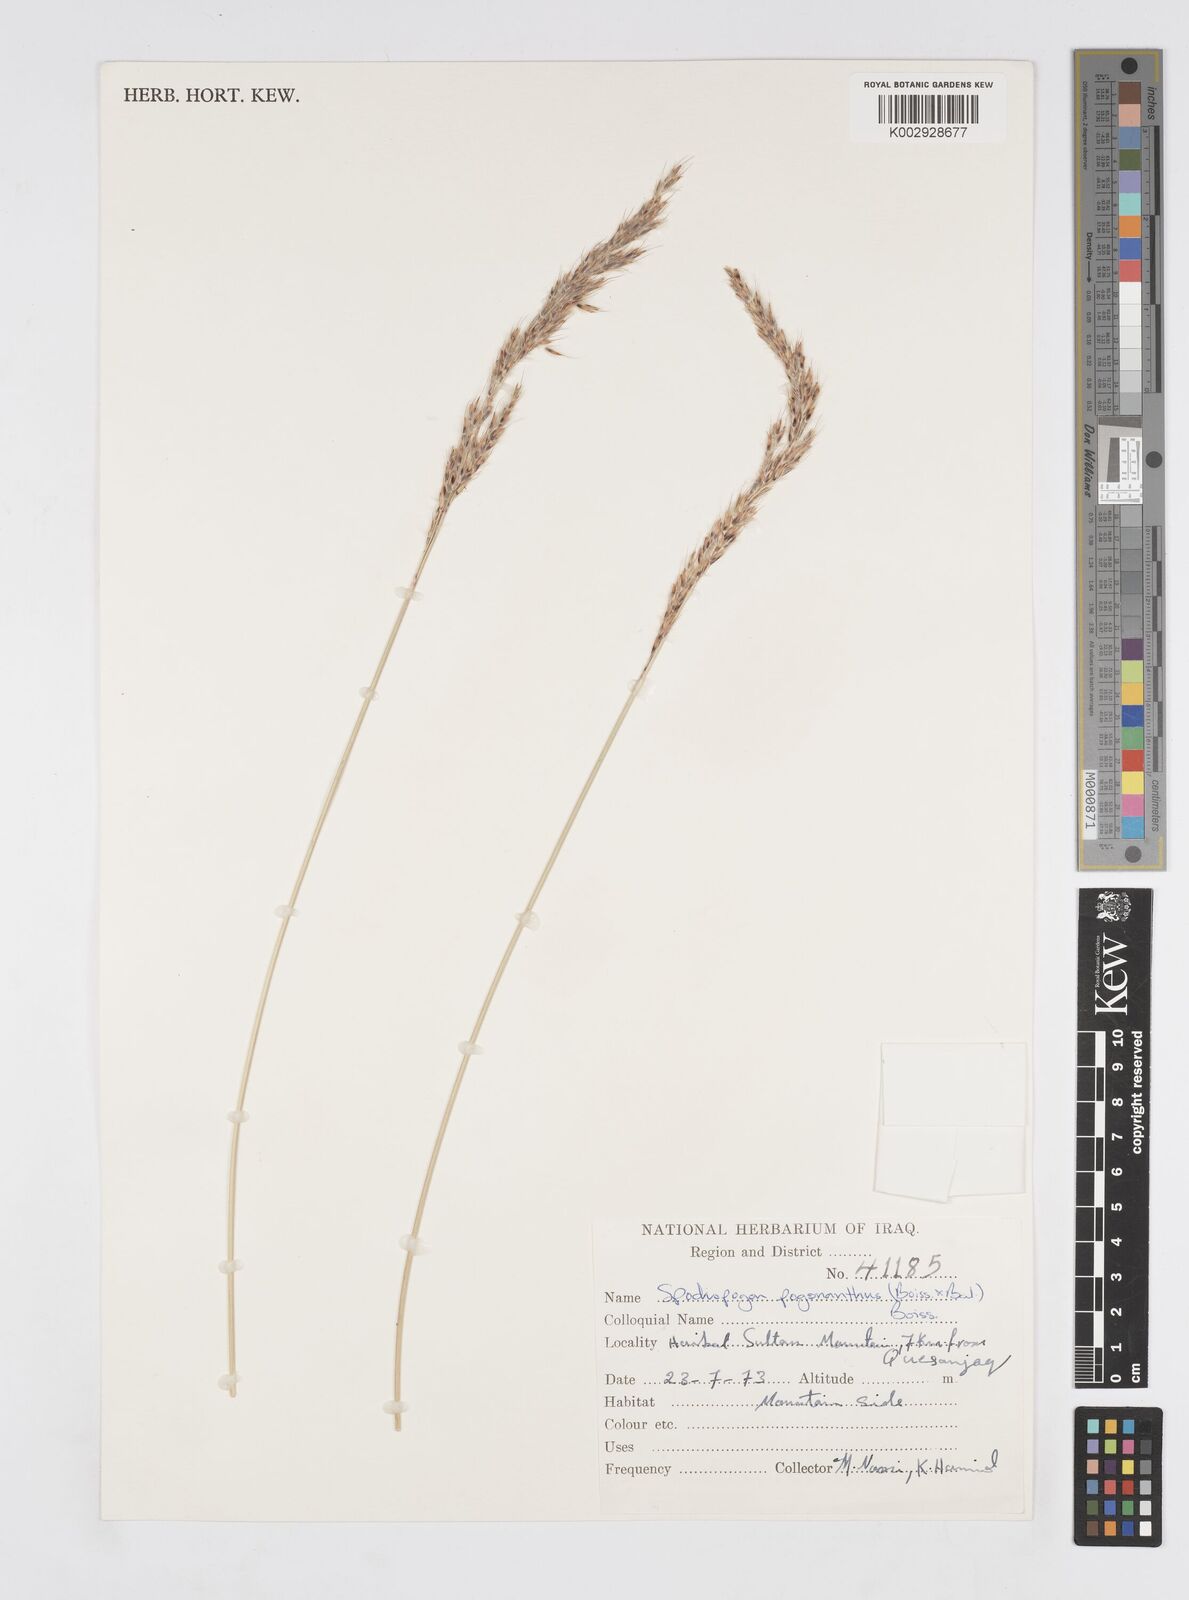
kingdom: Plantae
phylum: Tracheophyta
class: Liliopsida
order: Poales
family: Poaceae
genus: Tripidium
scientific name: Tripidium strictum
